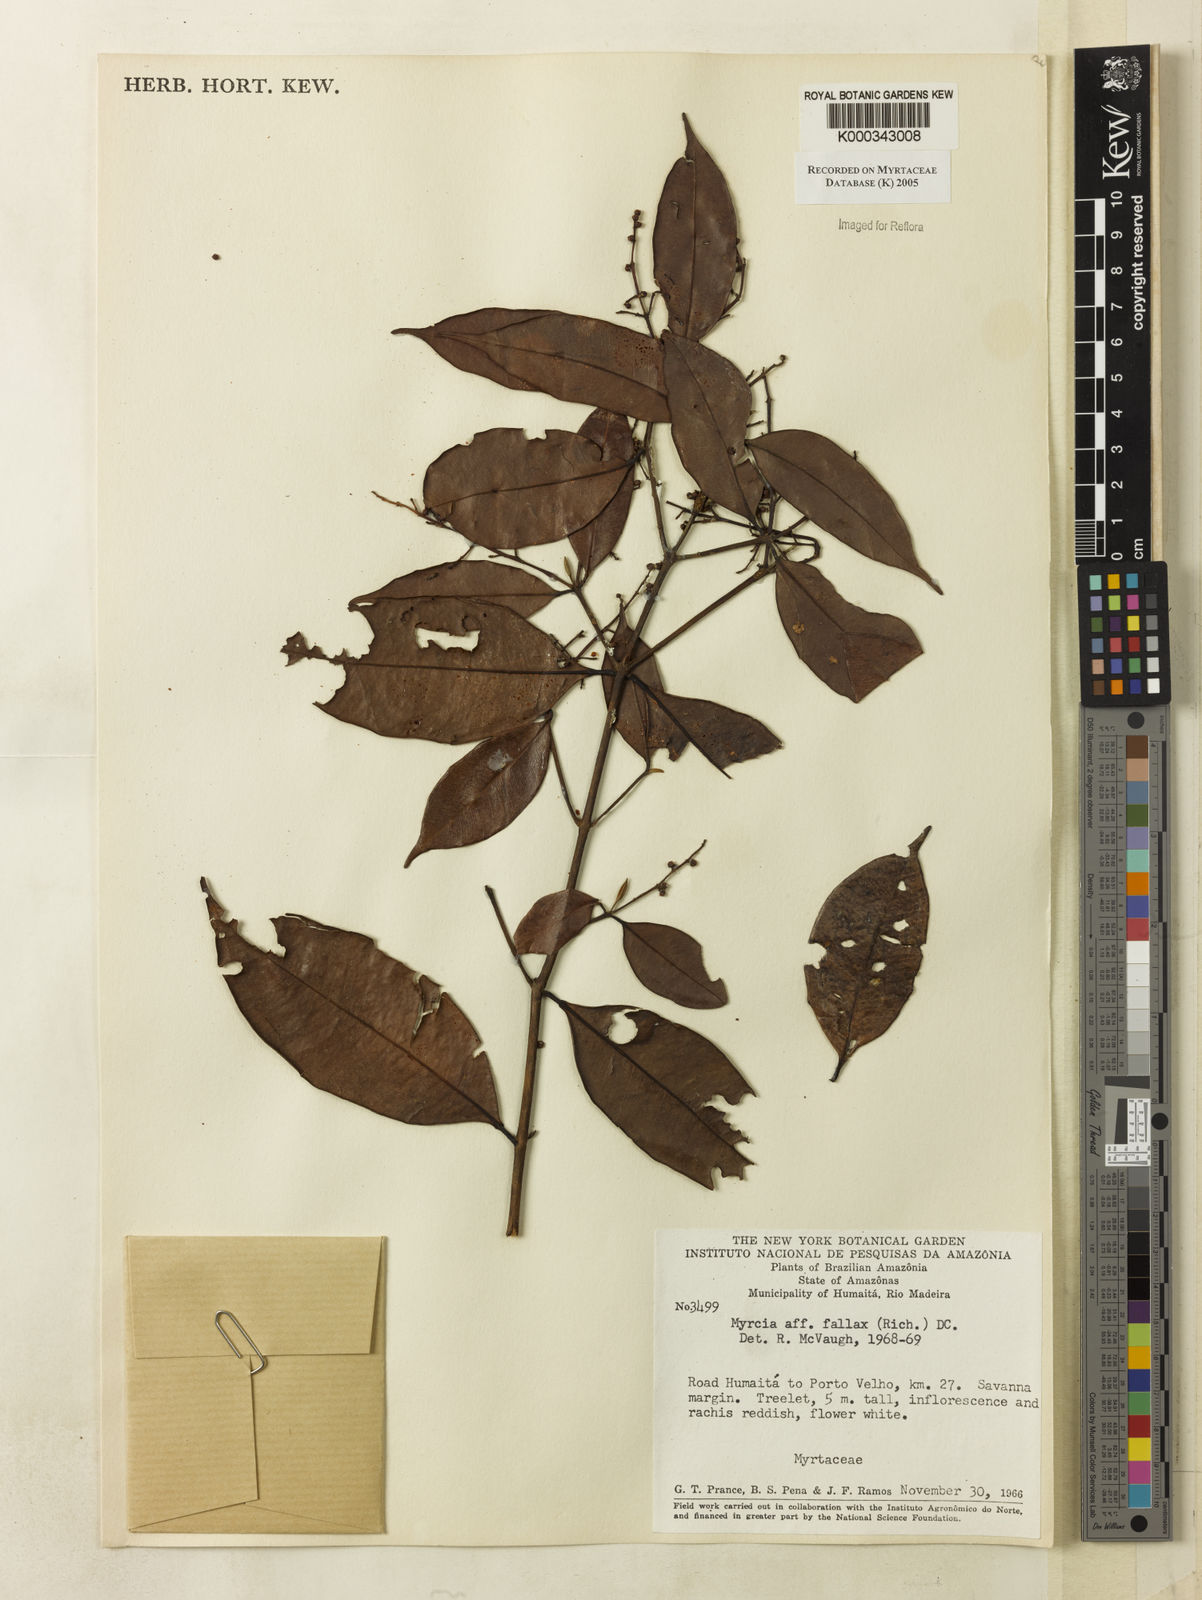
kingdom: Plantae
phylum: Tracheophyta
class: Magnoliopsida
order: Myrtales
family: Myrtaceae
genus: Myrcia
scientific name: Myrcia splendens
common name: Surinam cherry
